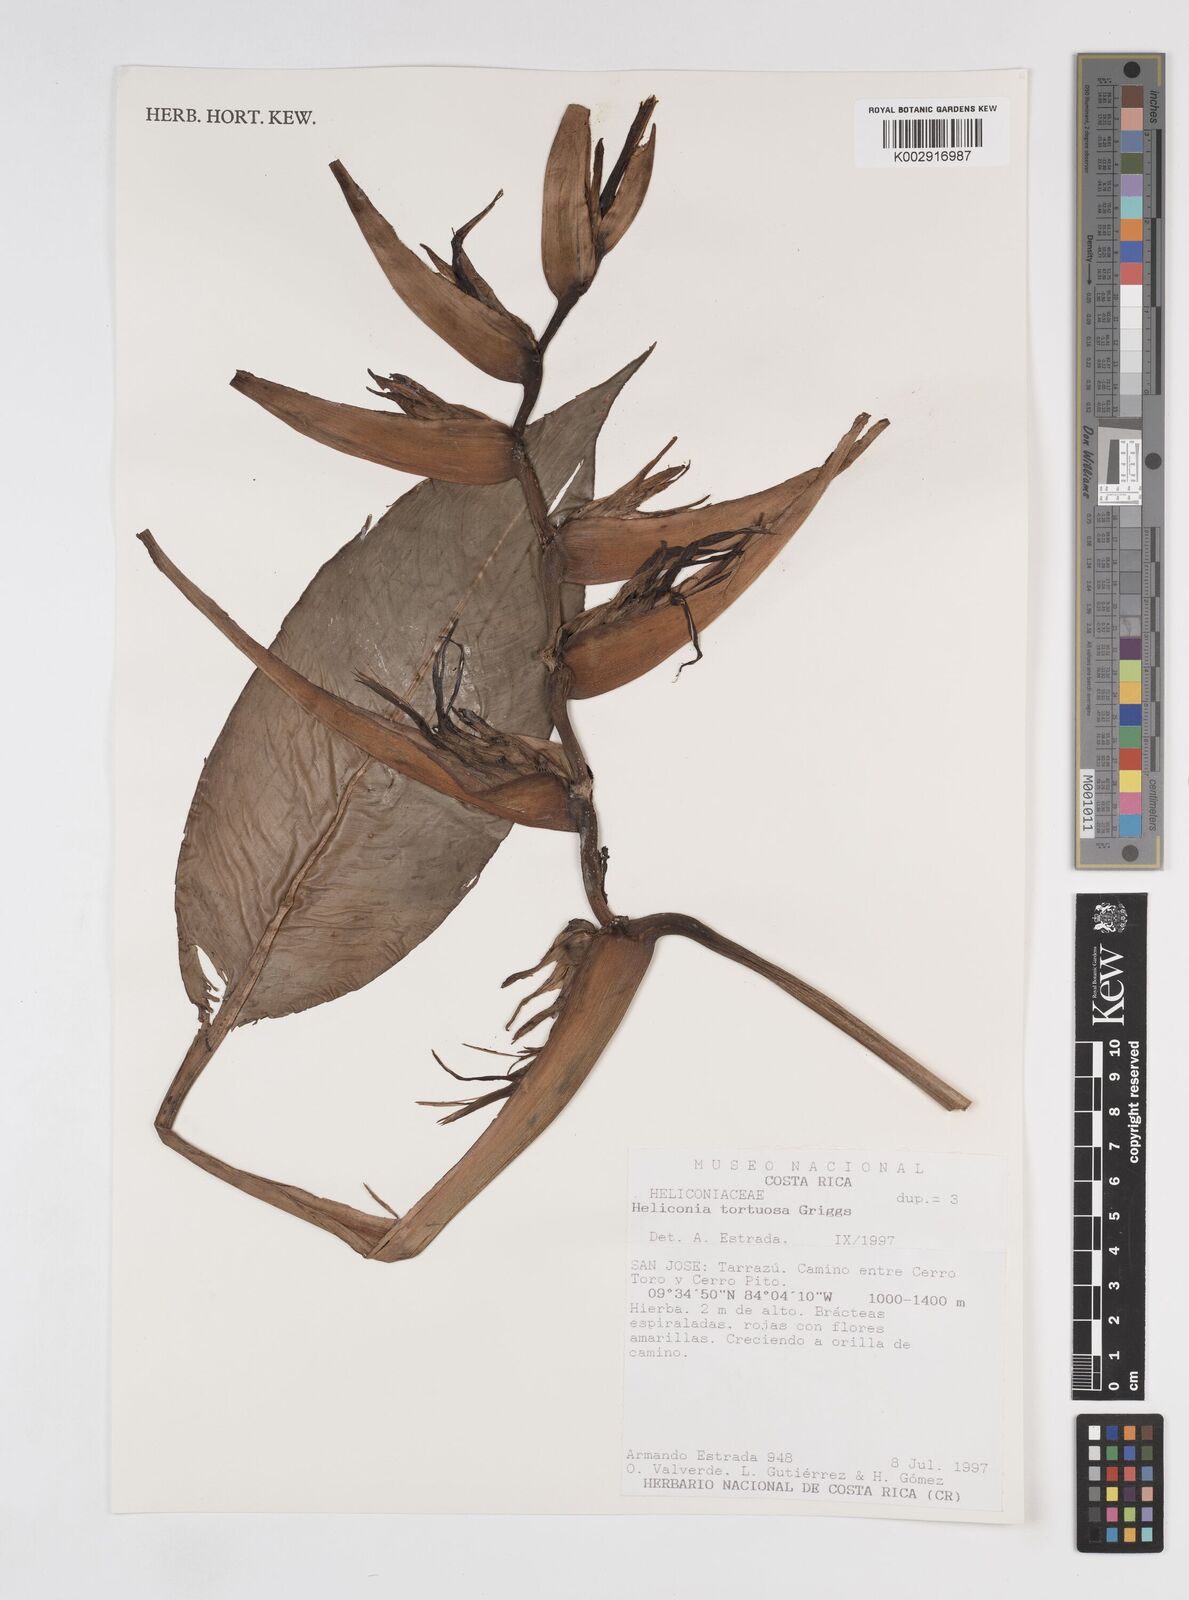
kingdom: Plantae
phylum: Tracheophyta
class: Liliopsida
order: Zingiberales
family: Heliconiaceae
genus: Heliconia
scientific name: Heliconia tortuosa
